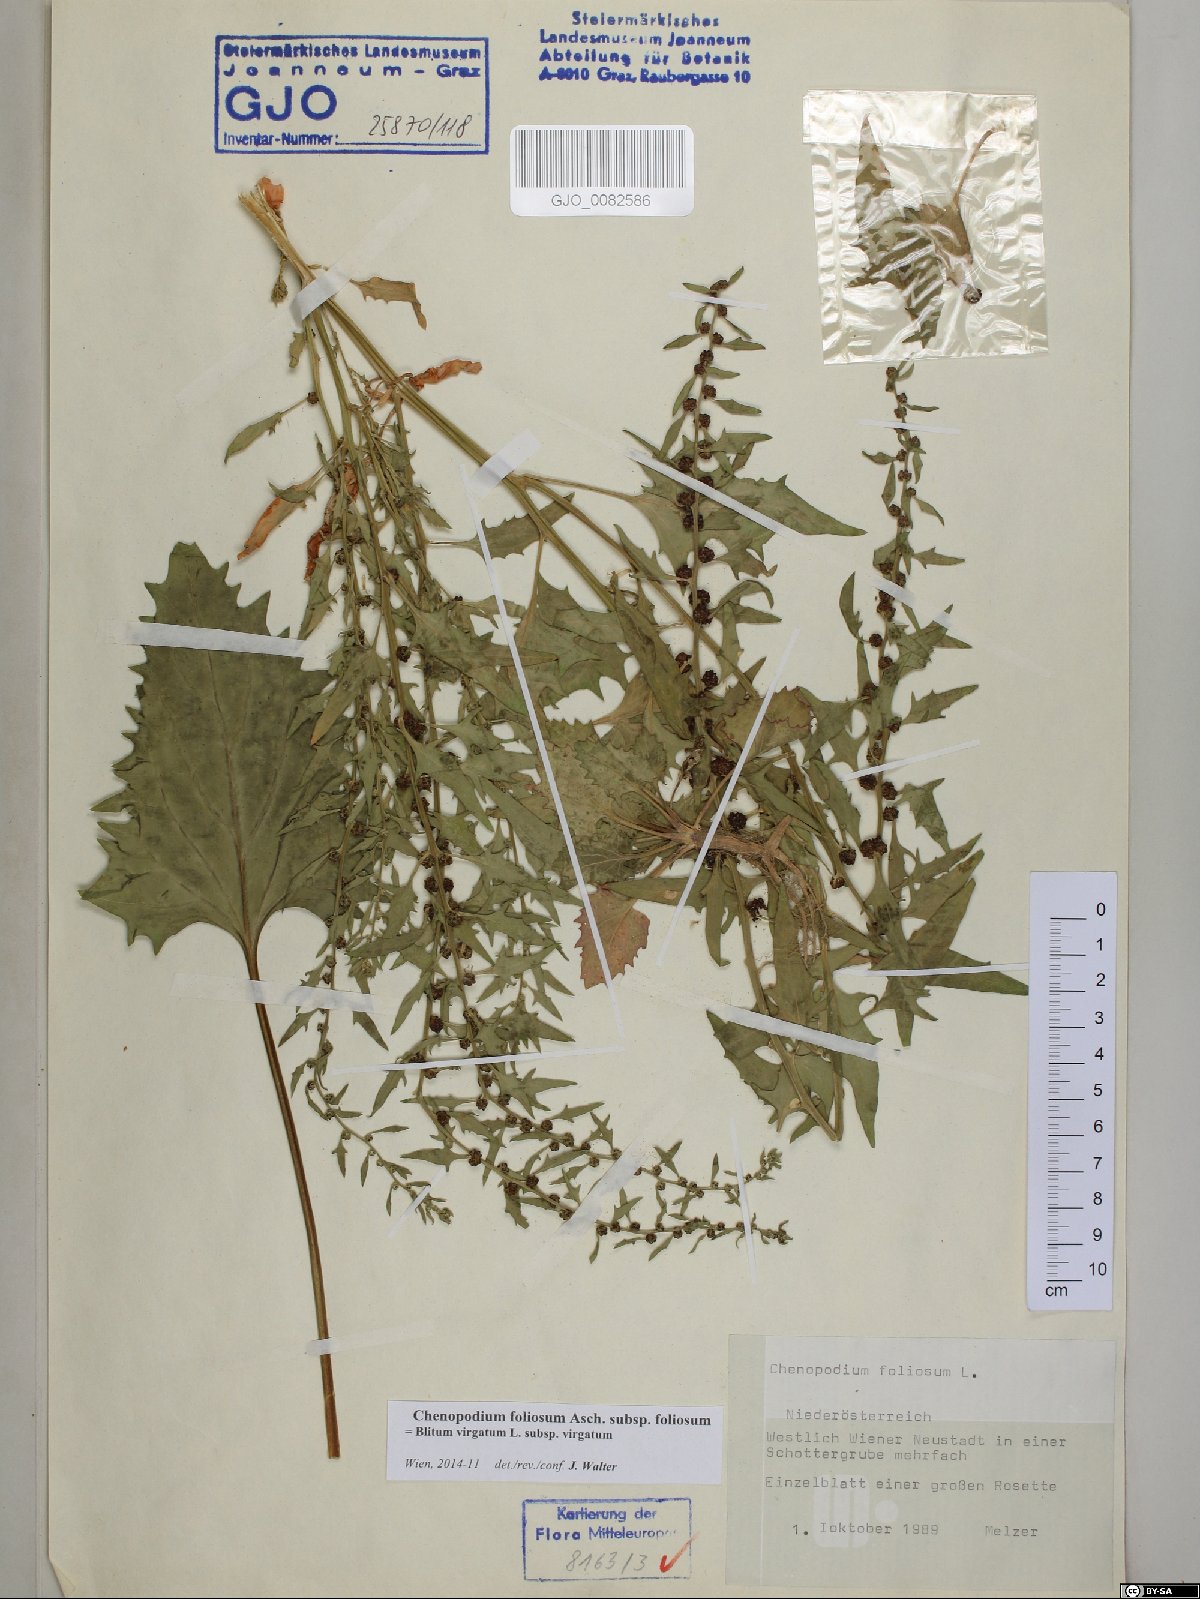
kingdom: Plantae
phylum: Tracheophyta
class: Magnoliopsida
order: Caryophyllales
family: Amaranthaceae
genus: Blitum
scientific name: Blitum virgatum
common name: Strawberry goosefoot
